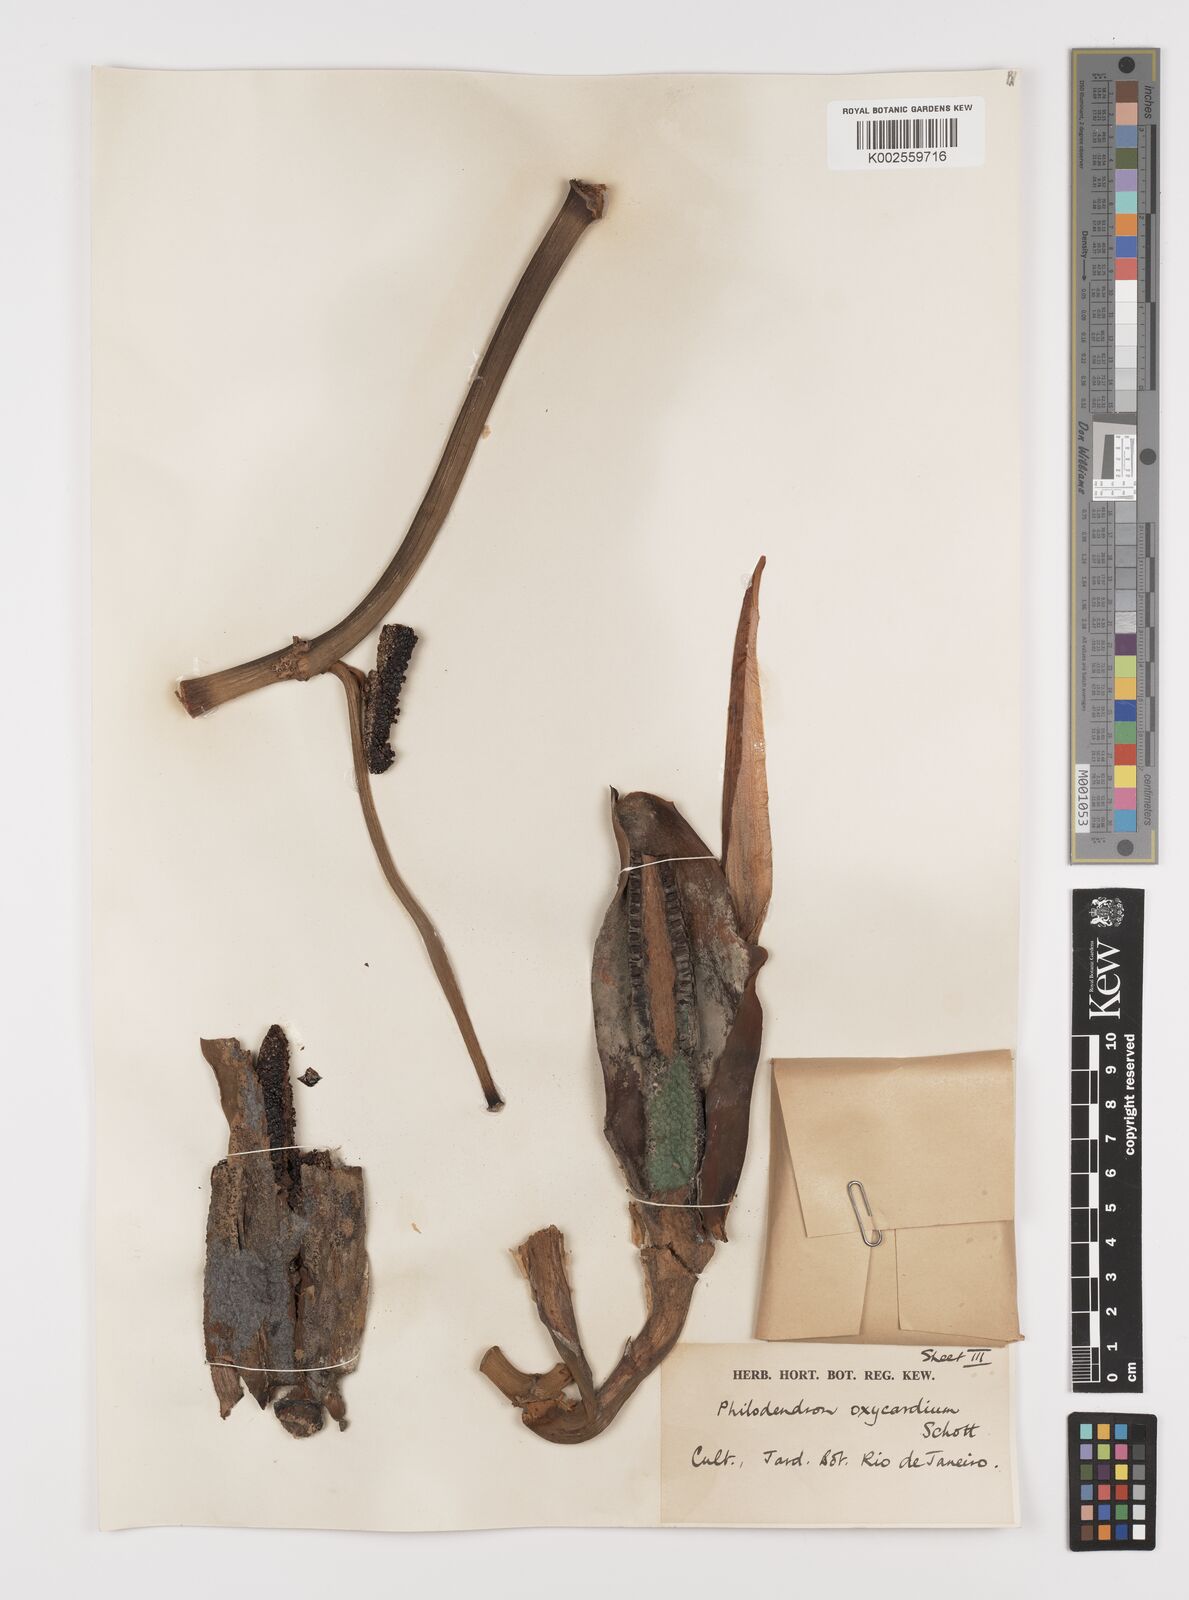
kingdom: Plantae
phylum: Tracheophyta
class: Liliopsida
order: Alismatales
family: Araceae
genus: Philodendron
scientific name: Philodendron hederaceum
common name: Vilevine
